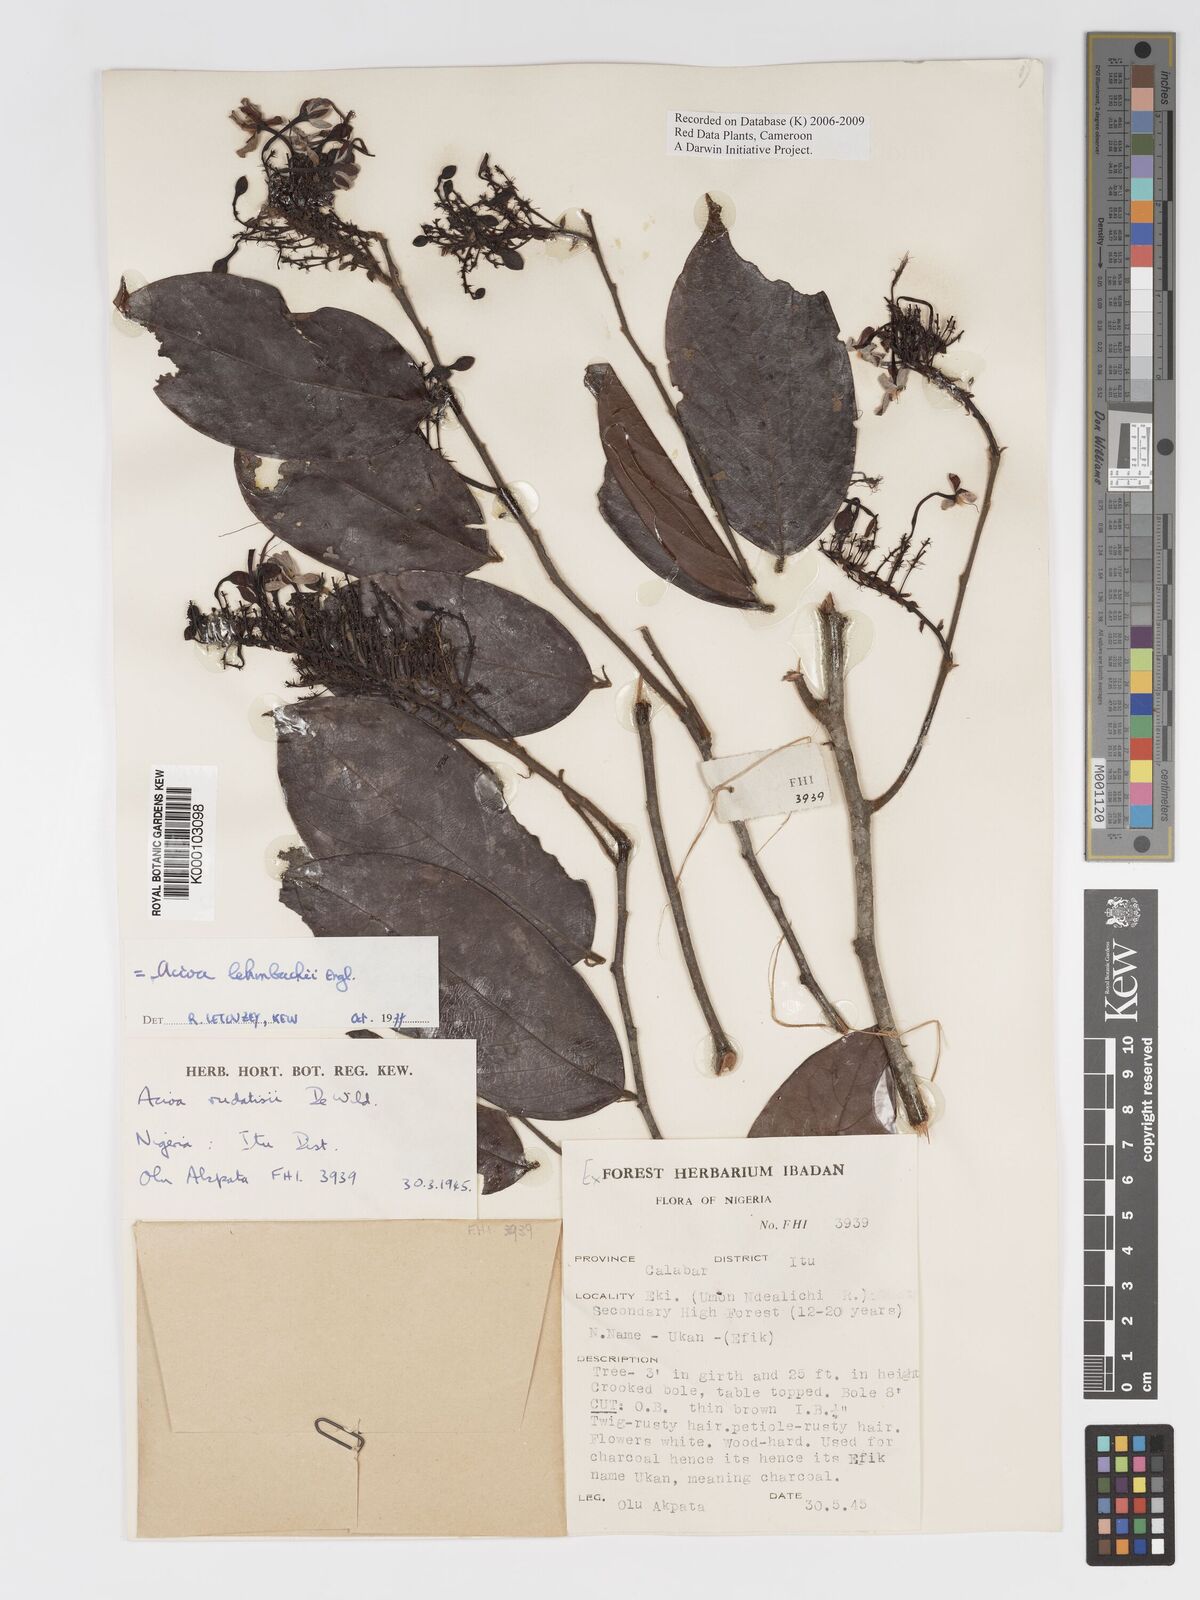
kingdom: Plantae
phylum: Tracheophyta
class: Magnoliopsida
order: Malpighiales
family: Chrysobalanaceae
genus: Dactyladenia
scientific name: Dactyladenia lehmbachii
